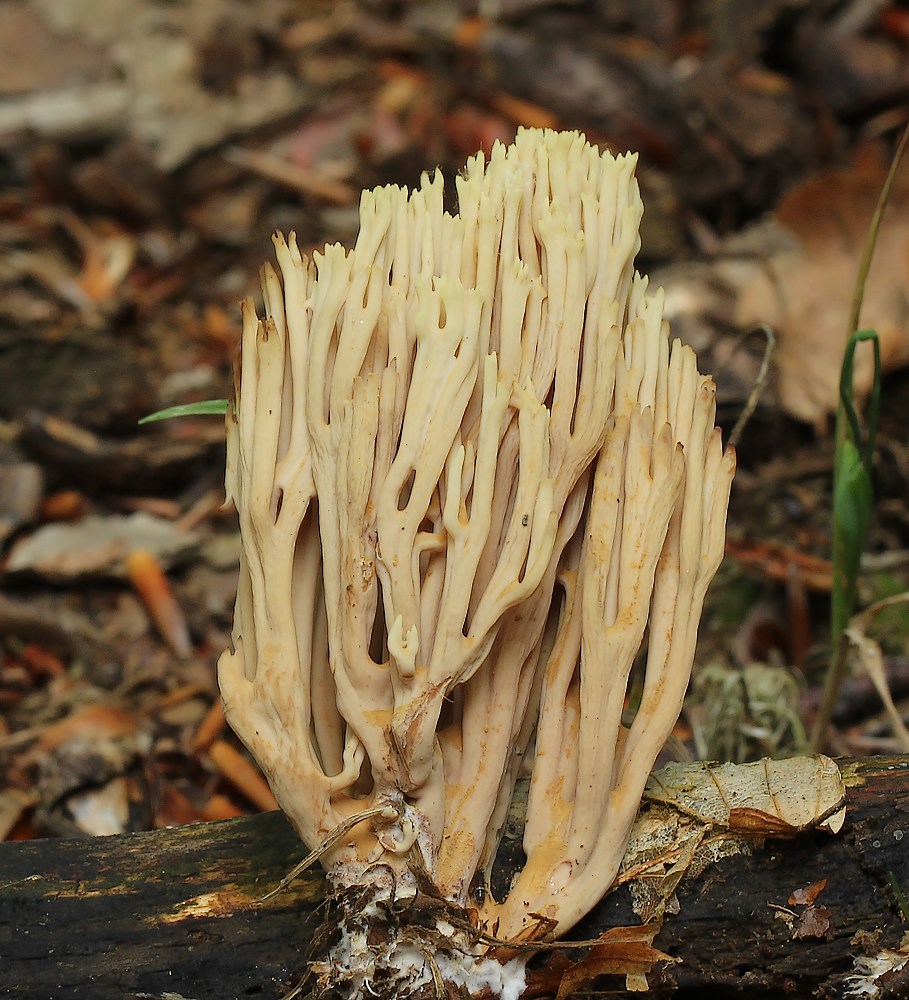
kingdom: Fungi
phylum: Basidiomycota
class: Agaricomycetes
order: Gomphales
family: Gomphaceae
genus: Ramaria
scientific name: Ramaria stricta
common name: rank koralsvamp
